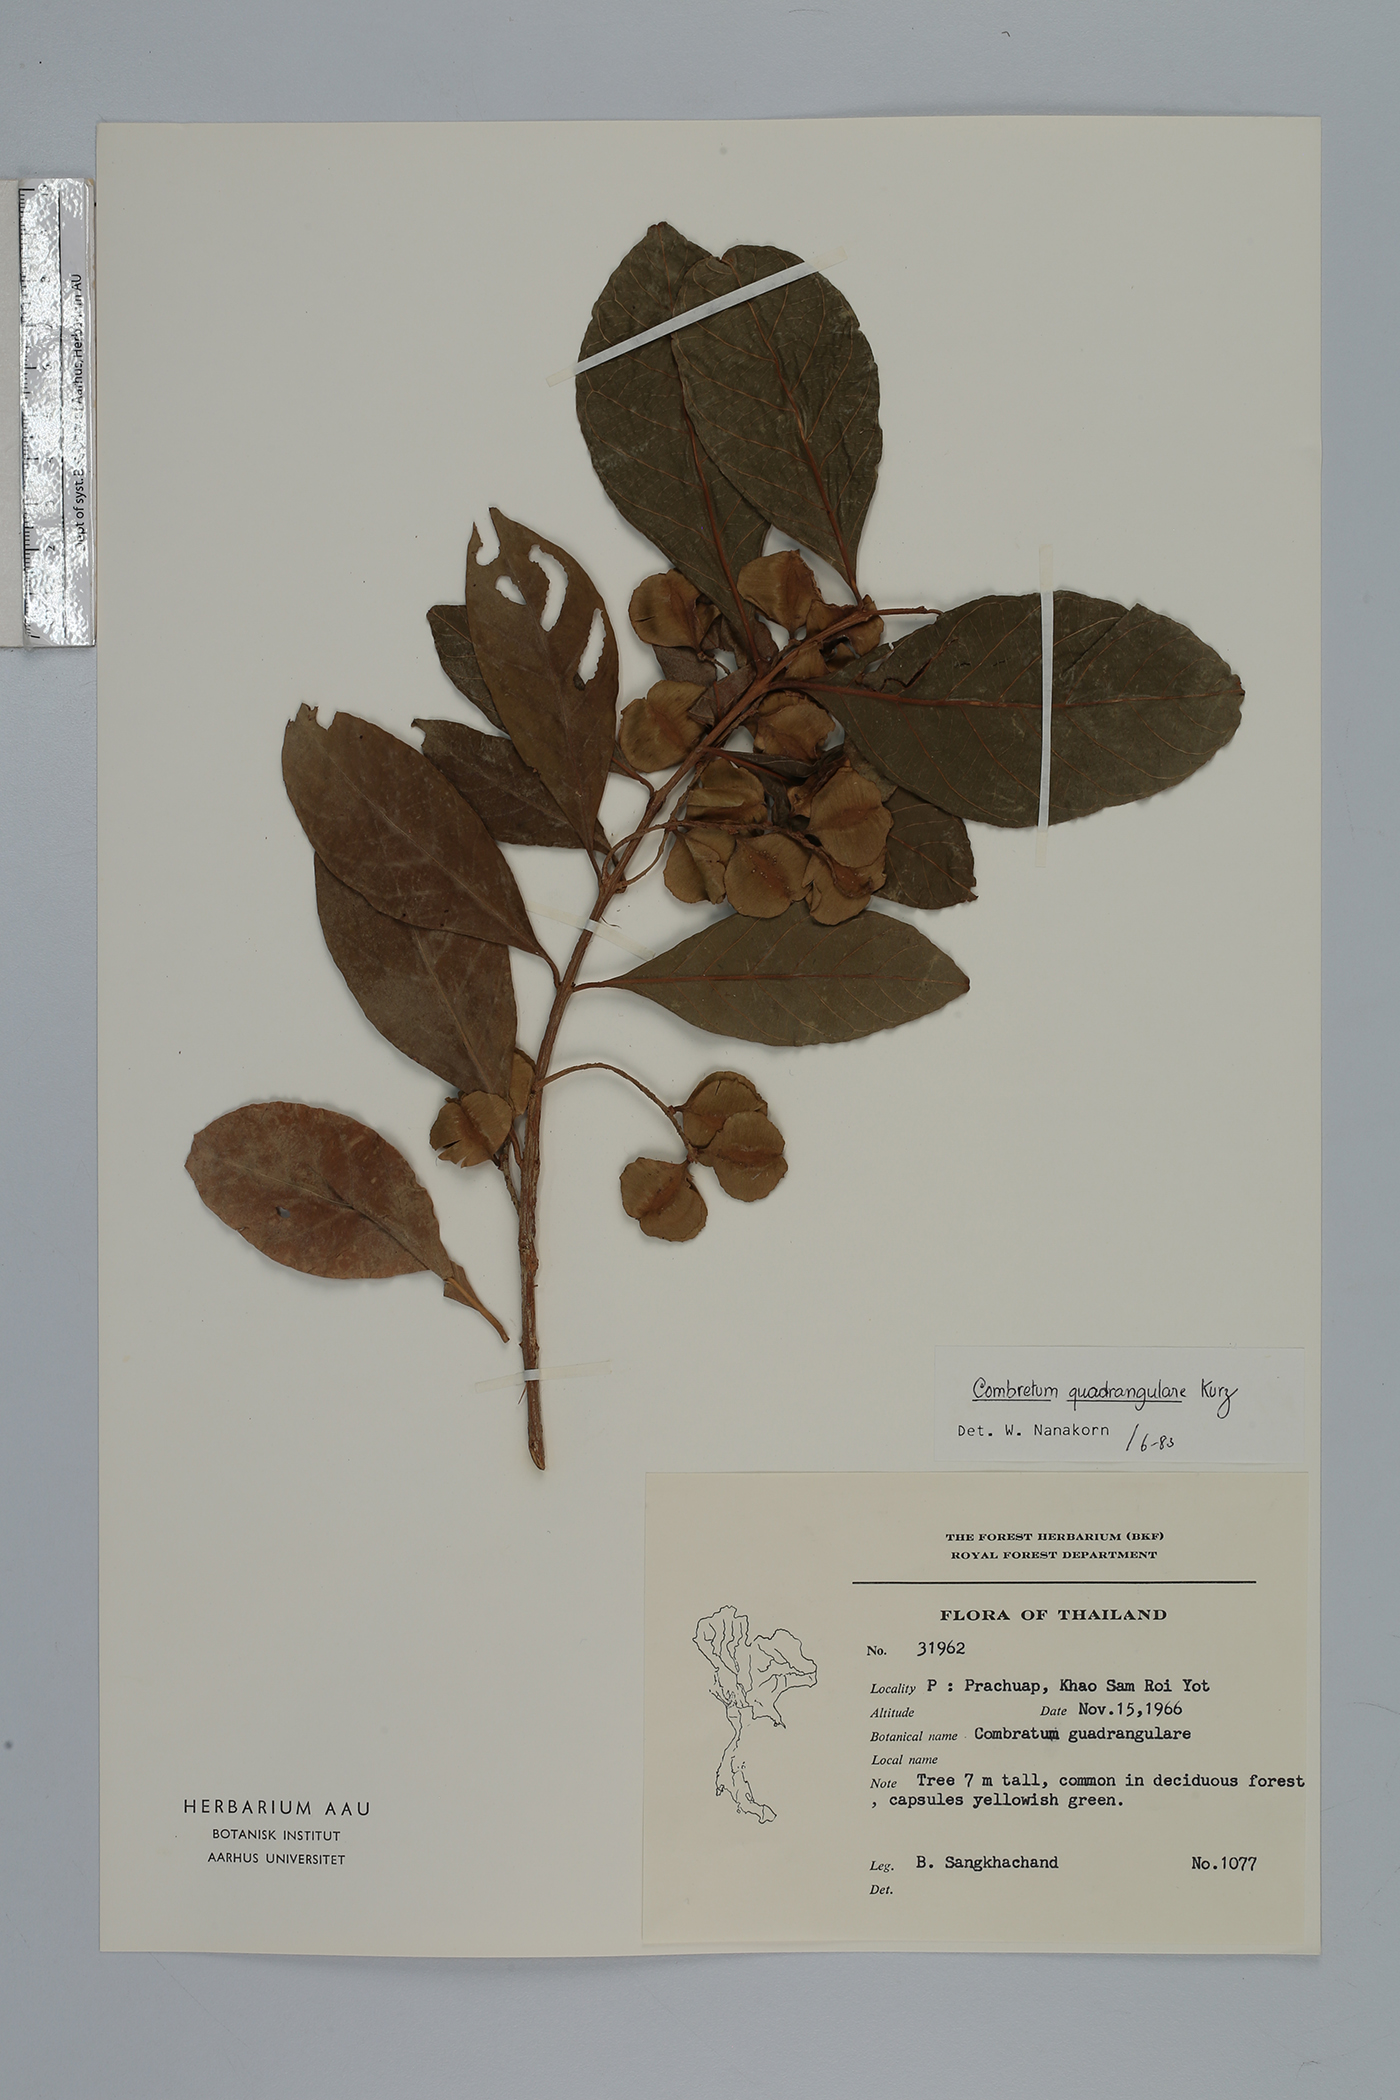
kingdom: Plantae
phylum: Tracheophyta
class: Magnoliopsida
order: Myrtales
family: Combretaceae
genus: Combretum
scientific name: Combretum quadrangulare
